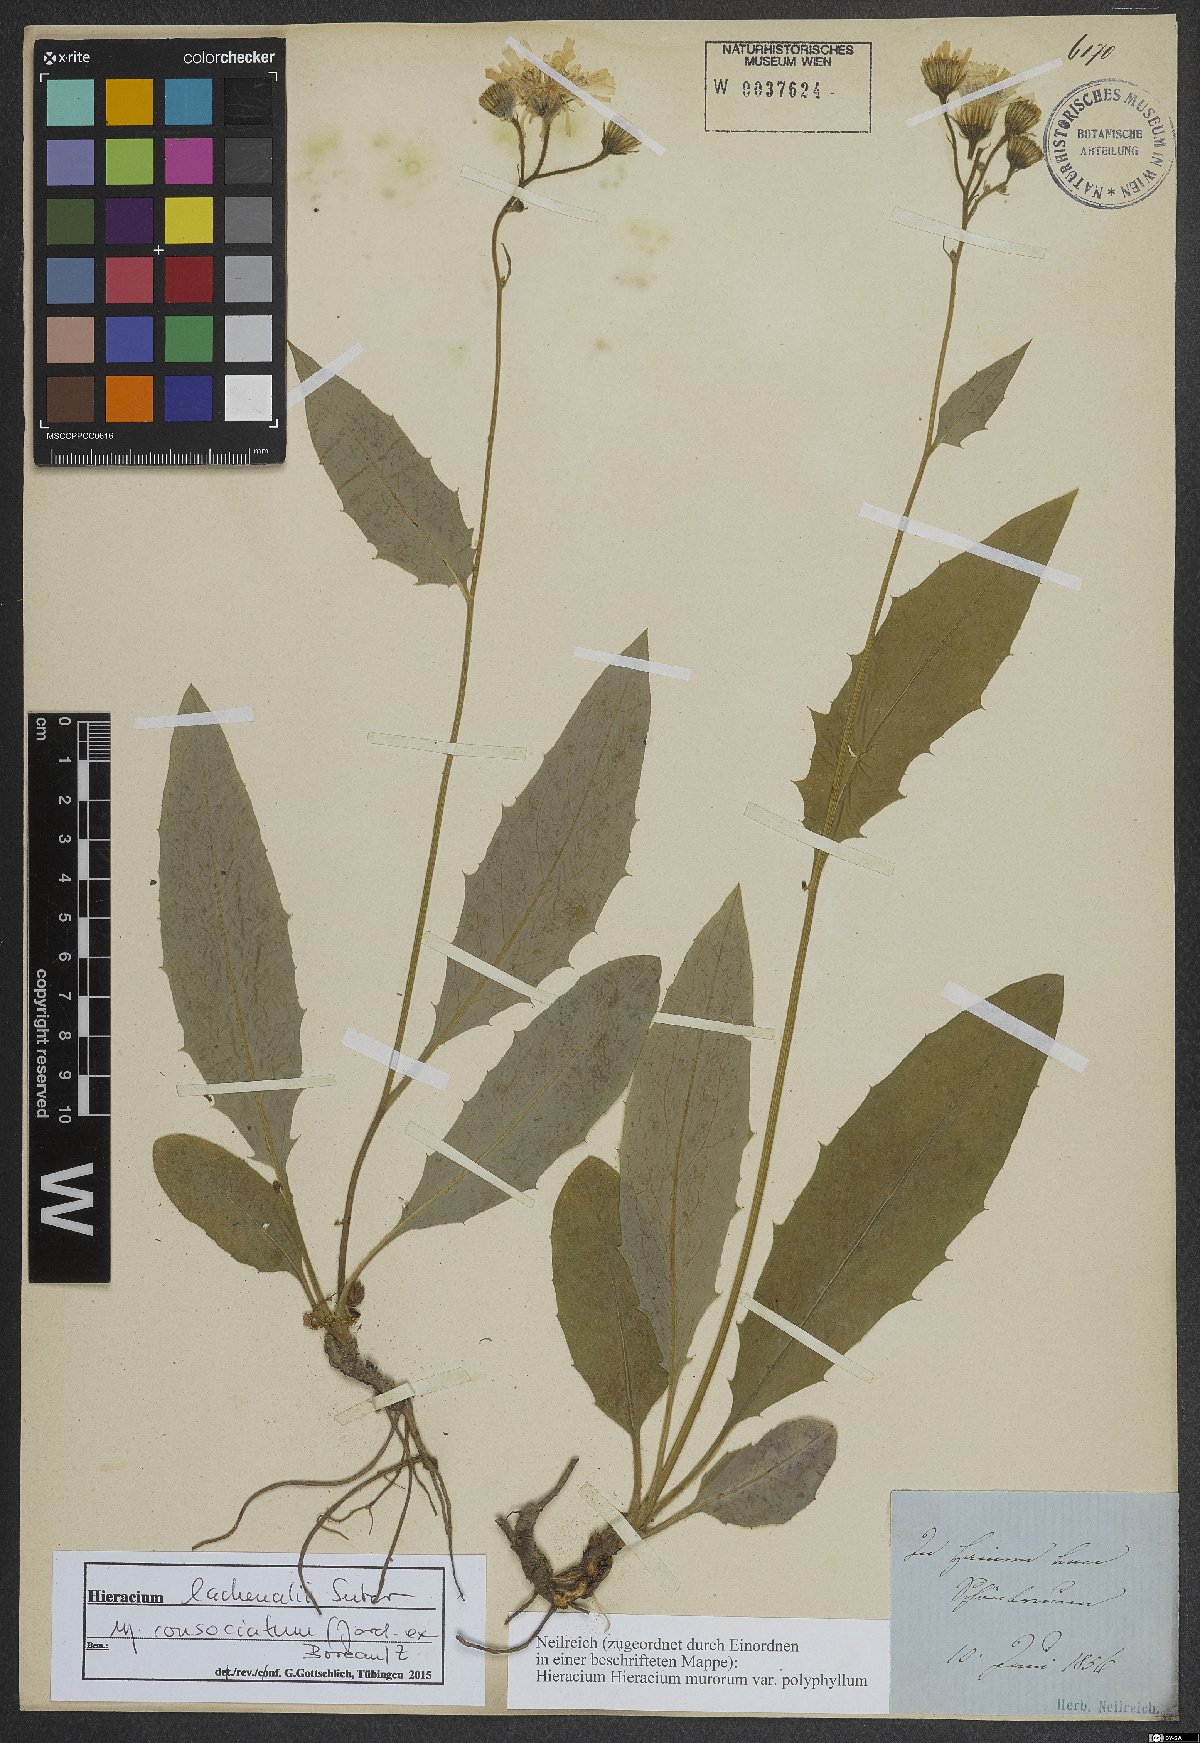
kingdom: Plantae
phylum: Tracheophyta
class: Magnoliopsida
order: Asterales
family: Asteraceae
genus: Hieracium
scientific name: Hieracium lachenalii
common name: Common hawkweed
